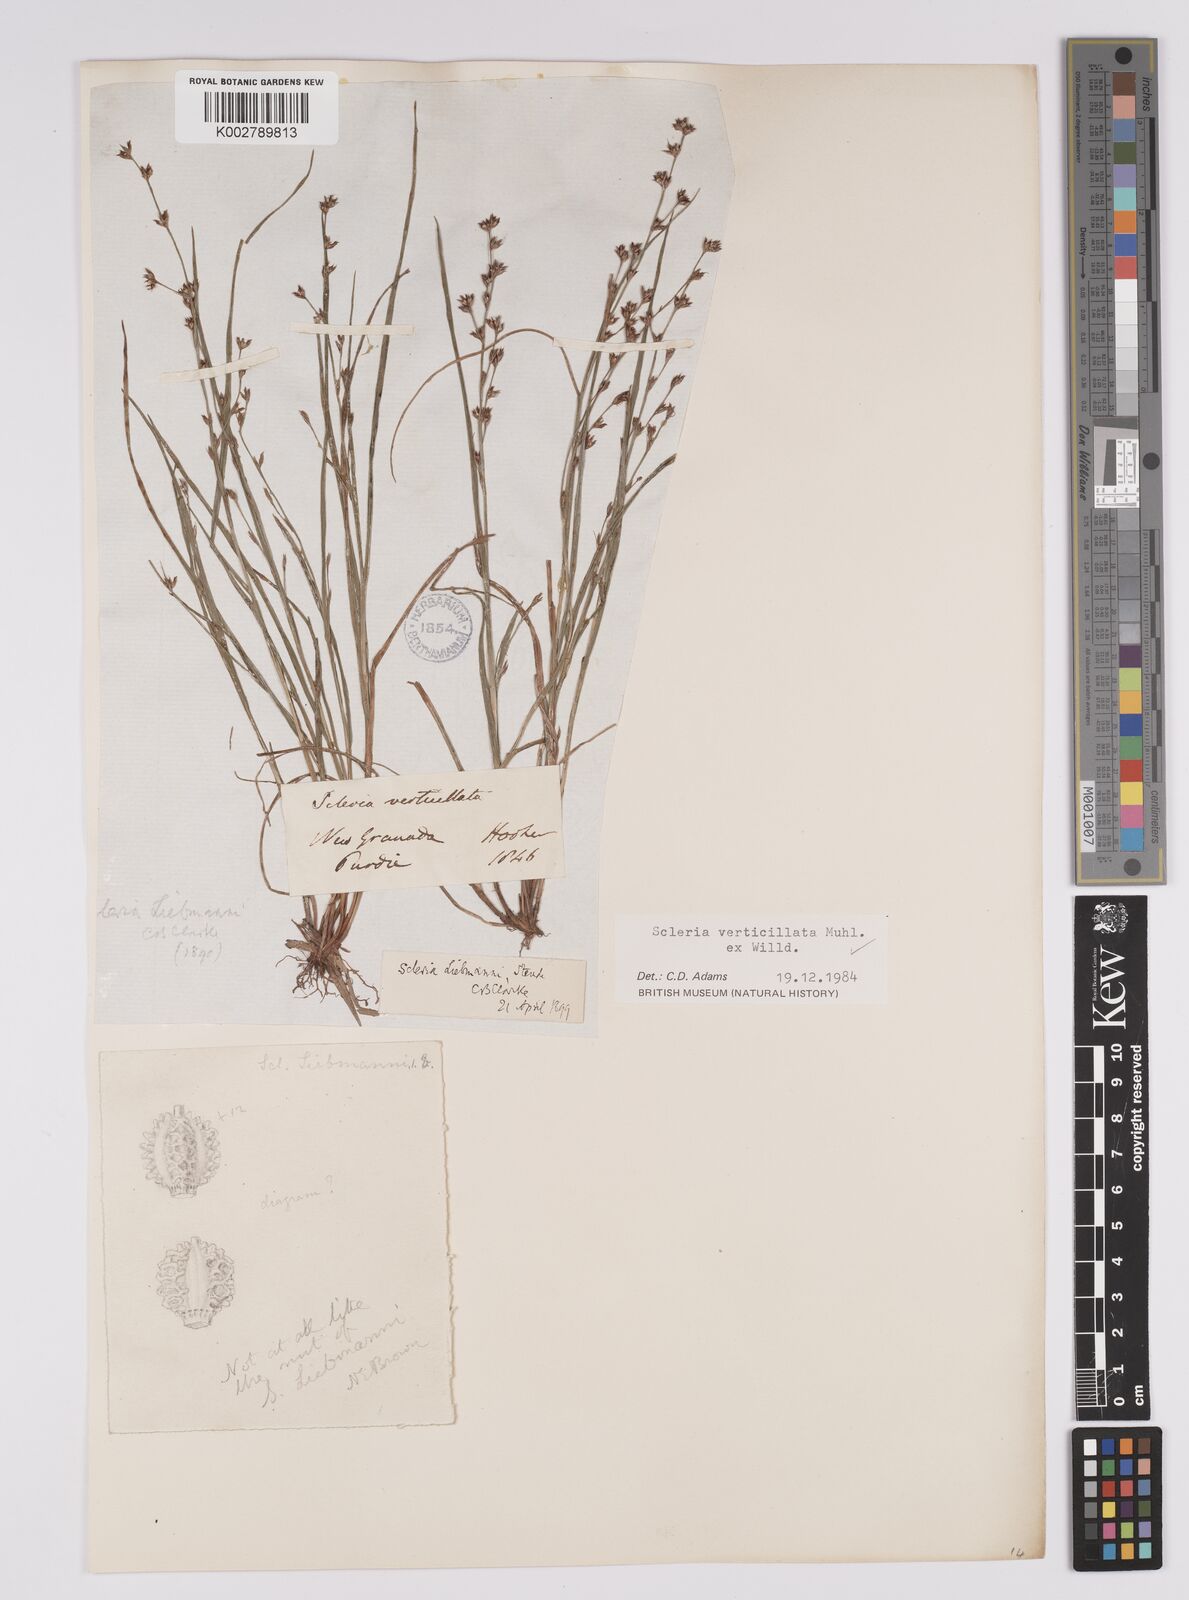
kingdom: Plantae
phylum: Tracheophyta
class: Liliopsida
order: Poales
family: Cyperaceae
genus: Scleria
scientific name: Scleria distans
